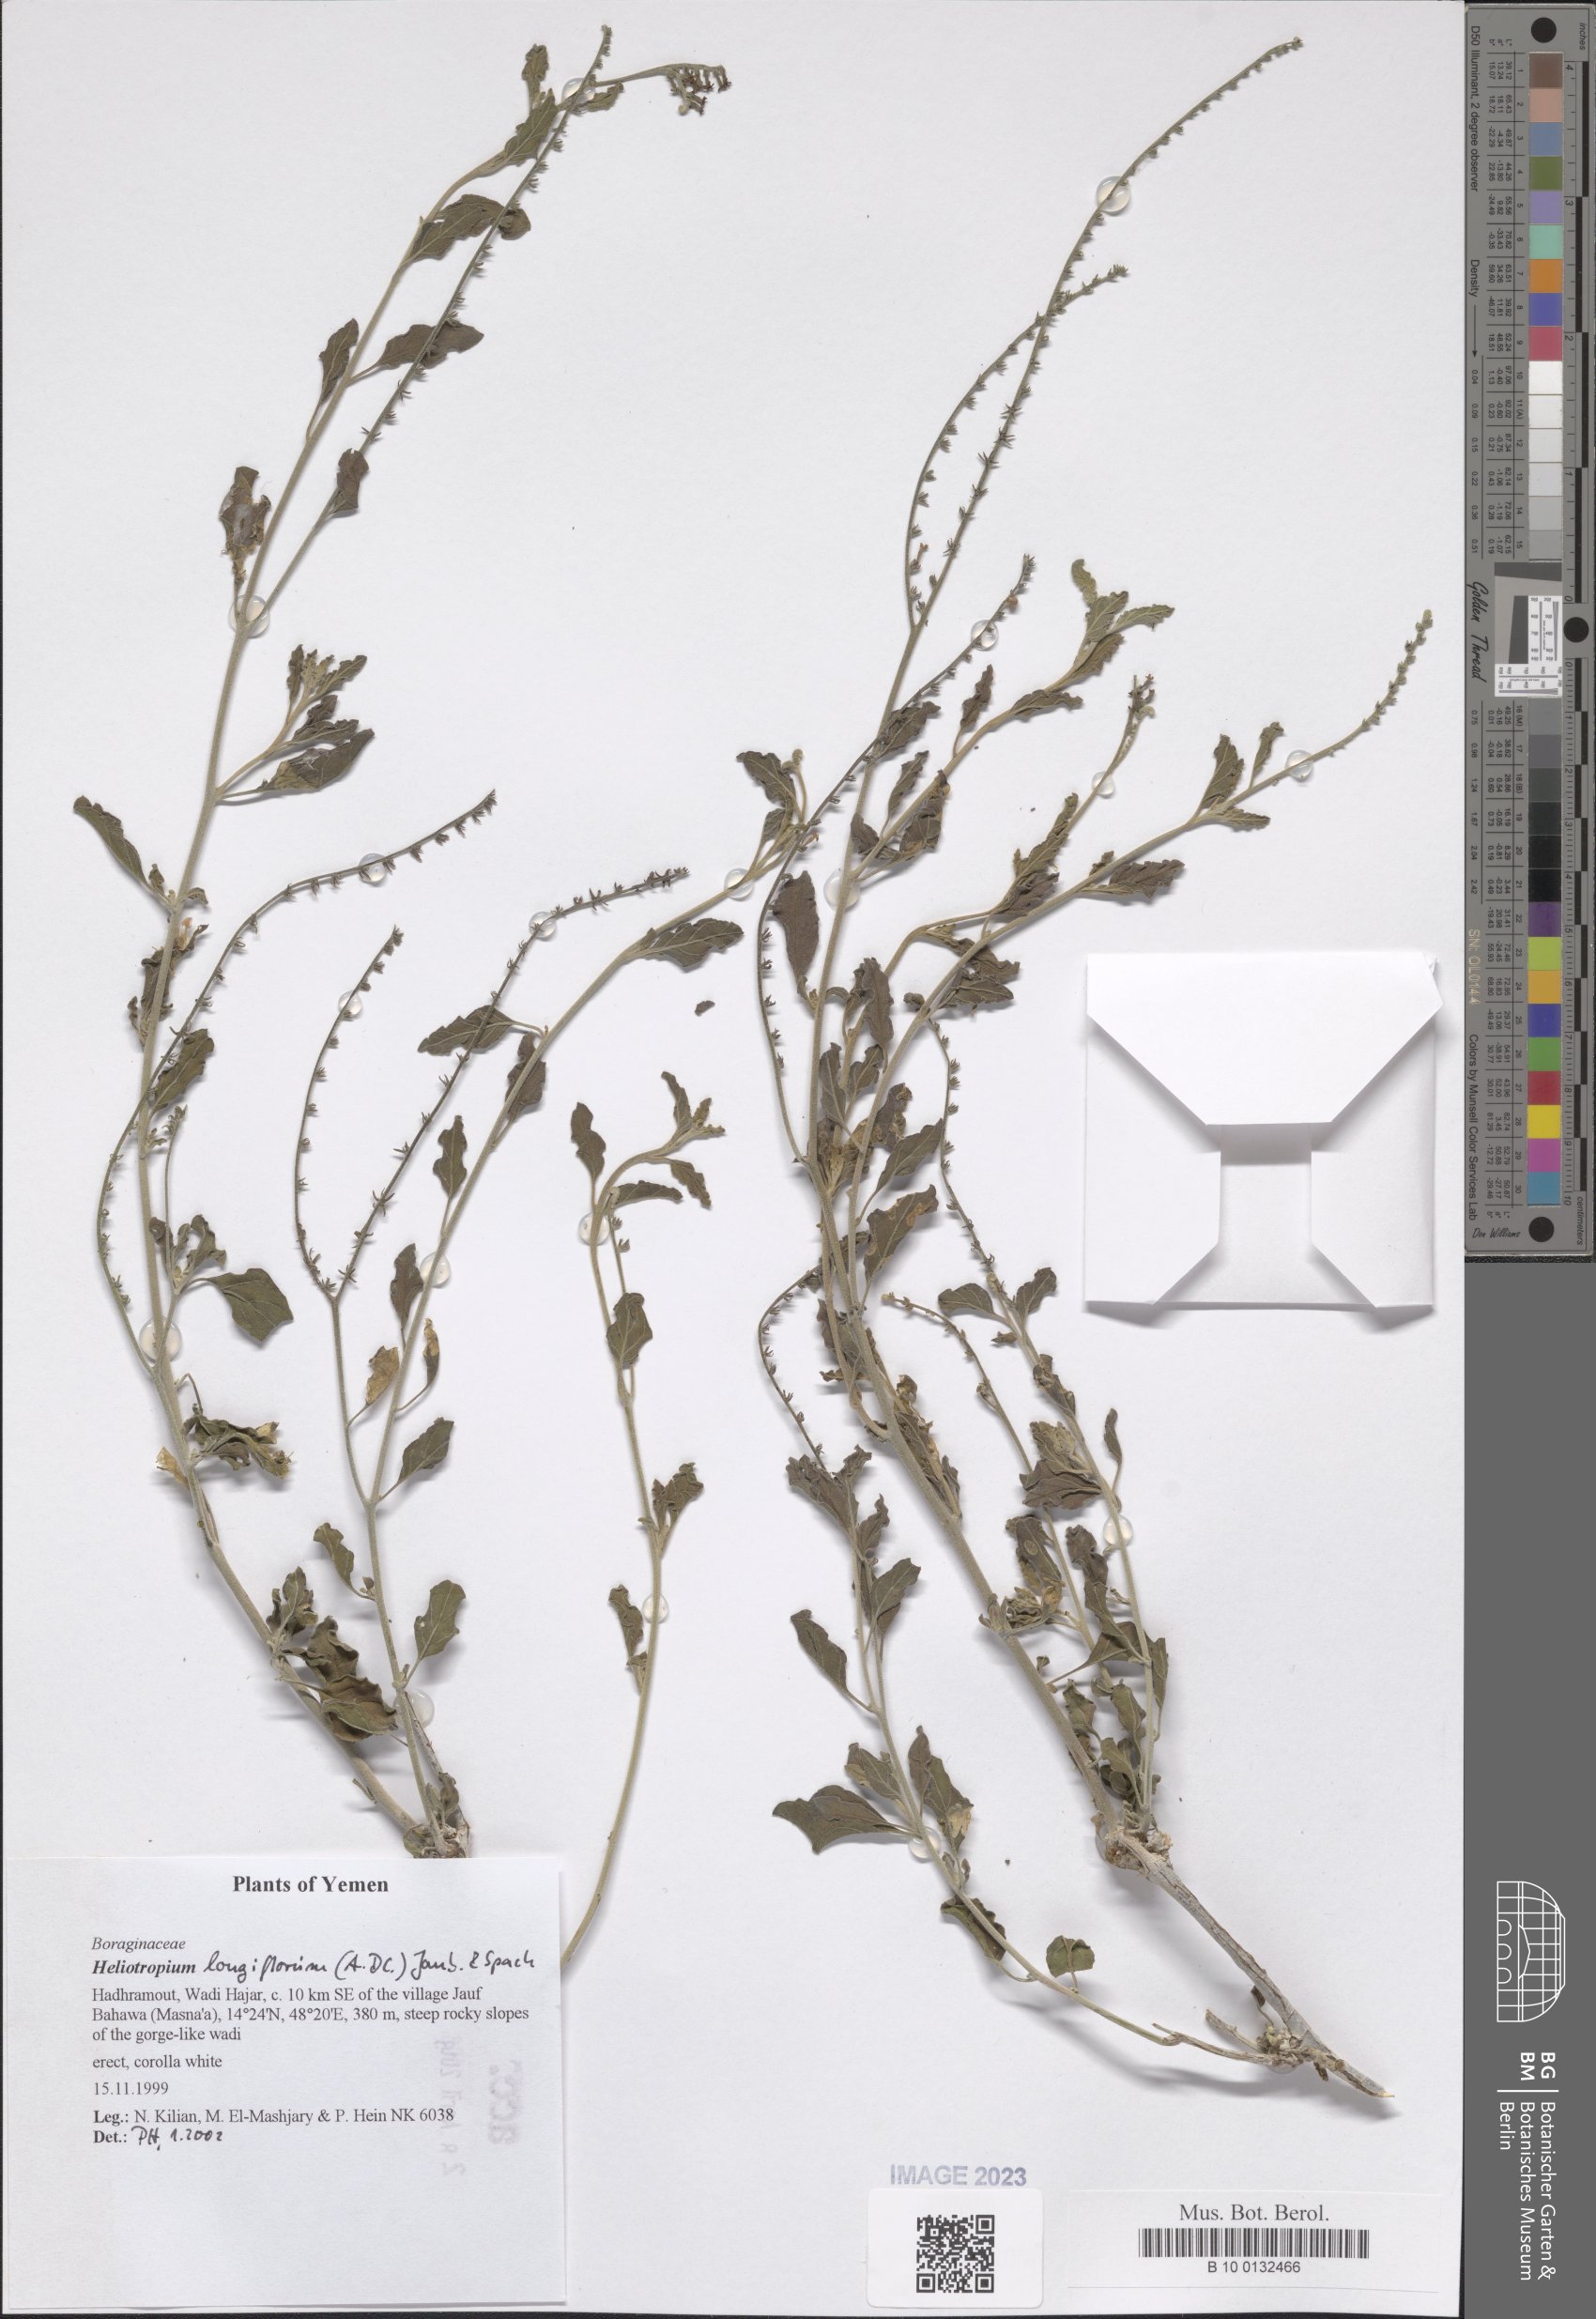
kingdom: Plantae
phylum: Tracheophyta
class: Magnoliopsida
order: Boraginales
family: Heliotropiaceae
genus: Heliotropium
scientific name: Heliotropium longiflorum
